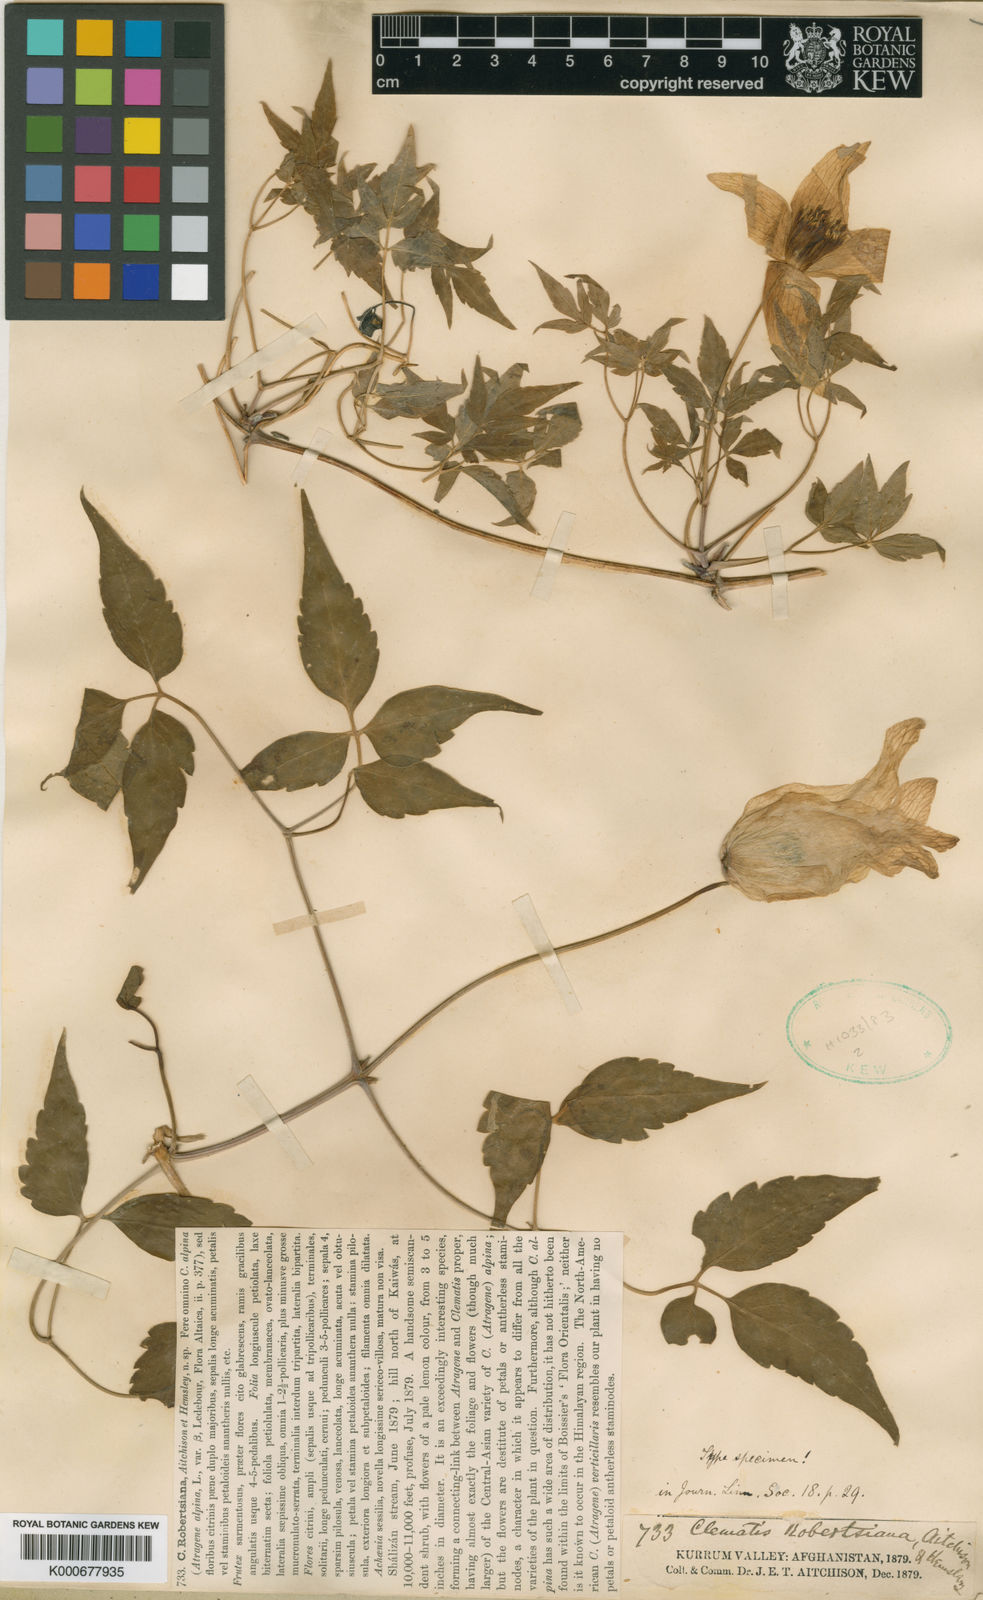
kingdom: Plantae
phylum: Tracheophyta
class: Magnoliopsida
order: Ranunculales
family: Ranunculaceae
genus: Clematis
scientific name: Clematis robertsiana
